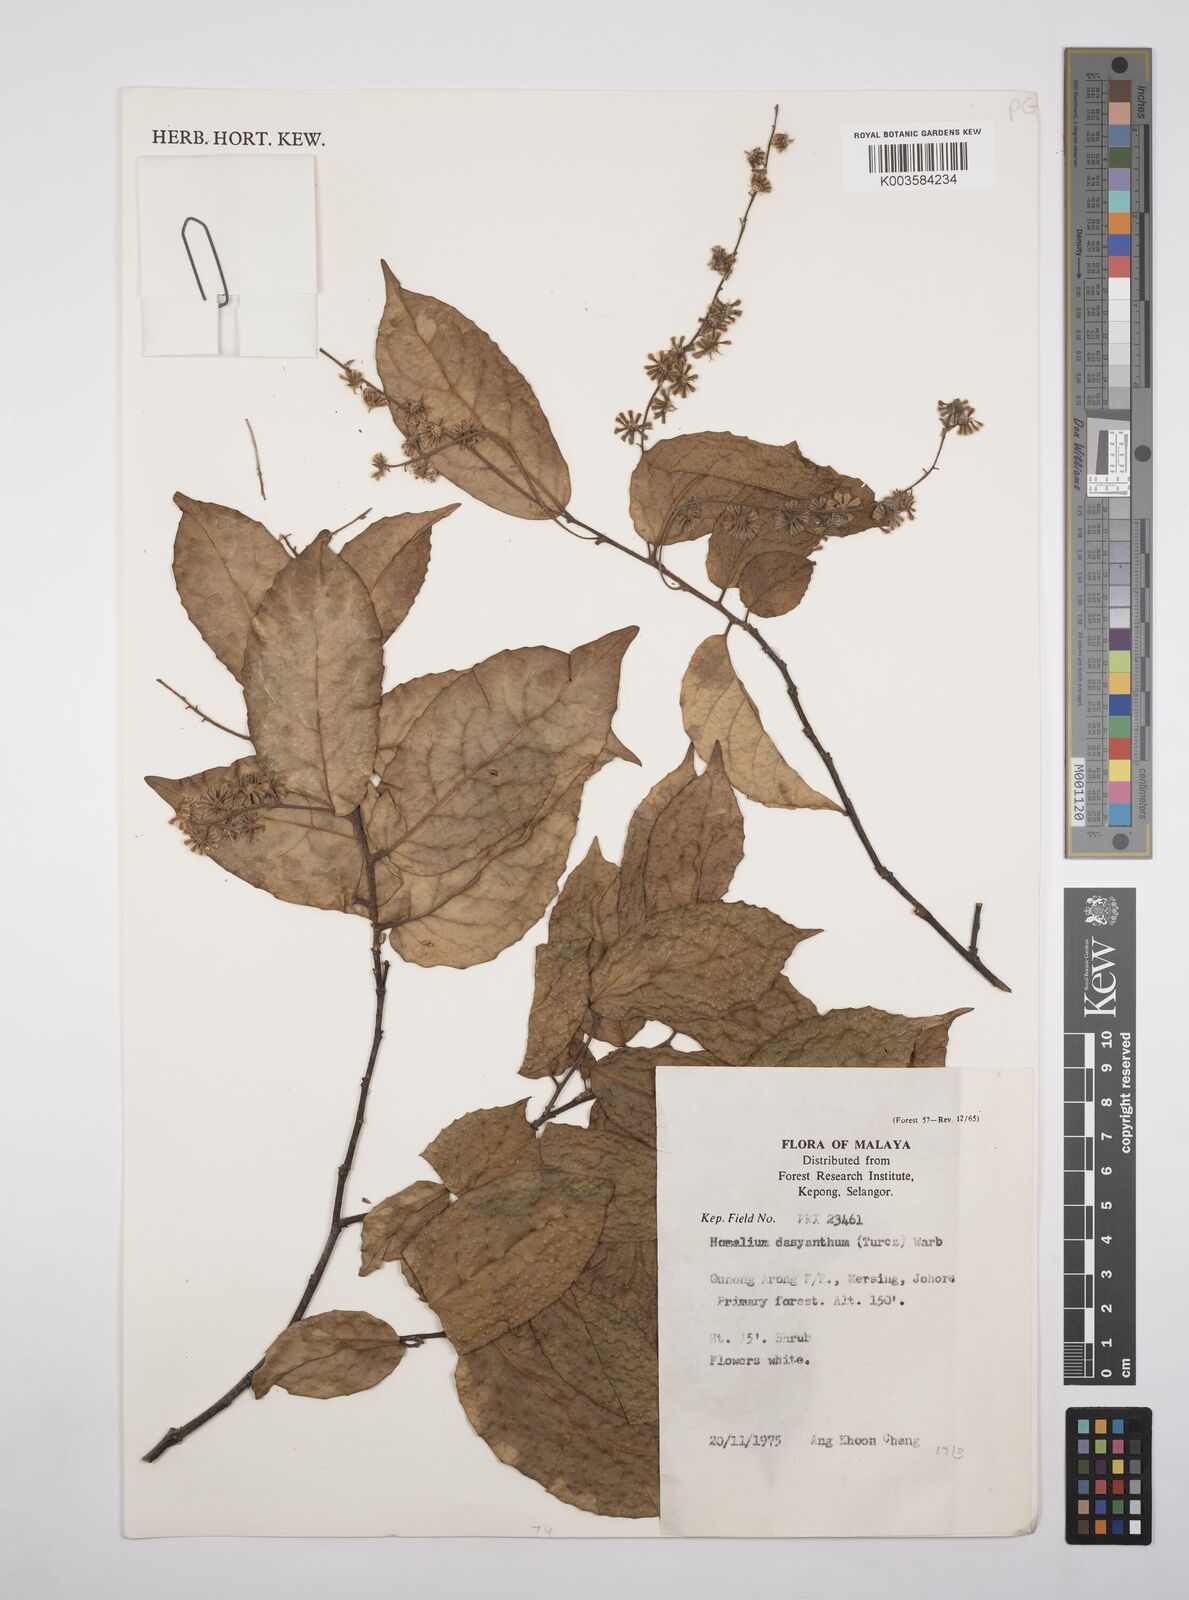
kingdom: Plantae
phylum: Tracheophyta
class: Magnoliopsida
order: Malpighiales
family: Salicaceae
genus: Homalium
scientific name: Homalium dasyanthum
